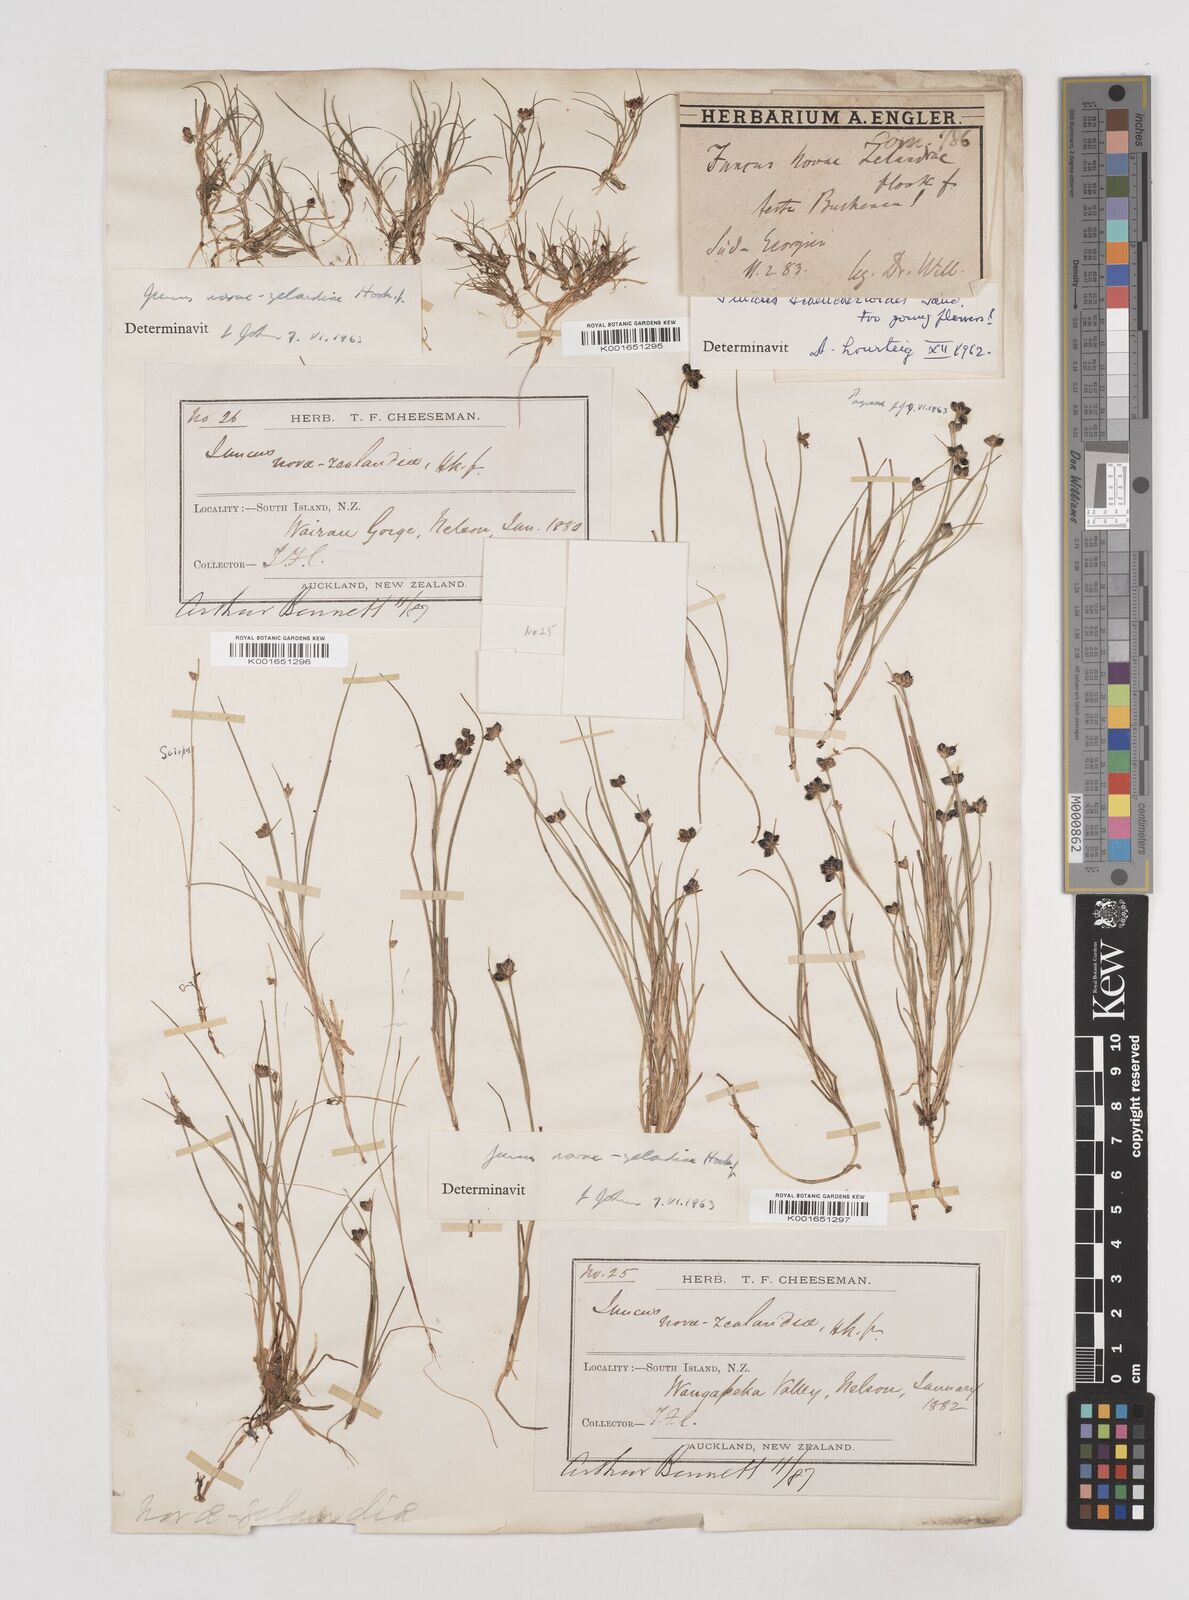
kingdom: Plantae
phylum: Tracheophyta
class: Liliopsida
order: Poales
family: Juncaceae
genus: Juncus
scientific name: Juncus novae-zelandiae
